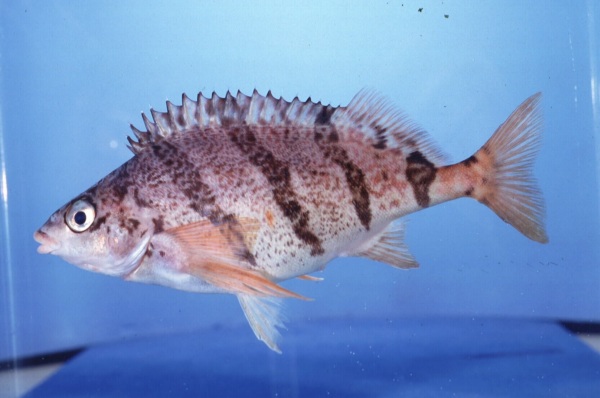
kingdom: Animalia
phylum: Chordata
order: Perciformes
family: Cheilodactylidae
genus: Cheilodactylus
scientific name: Cheilodactylus pixi
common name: Barred fingerfin
